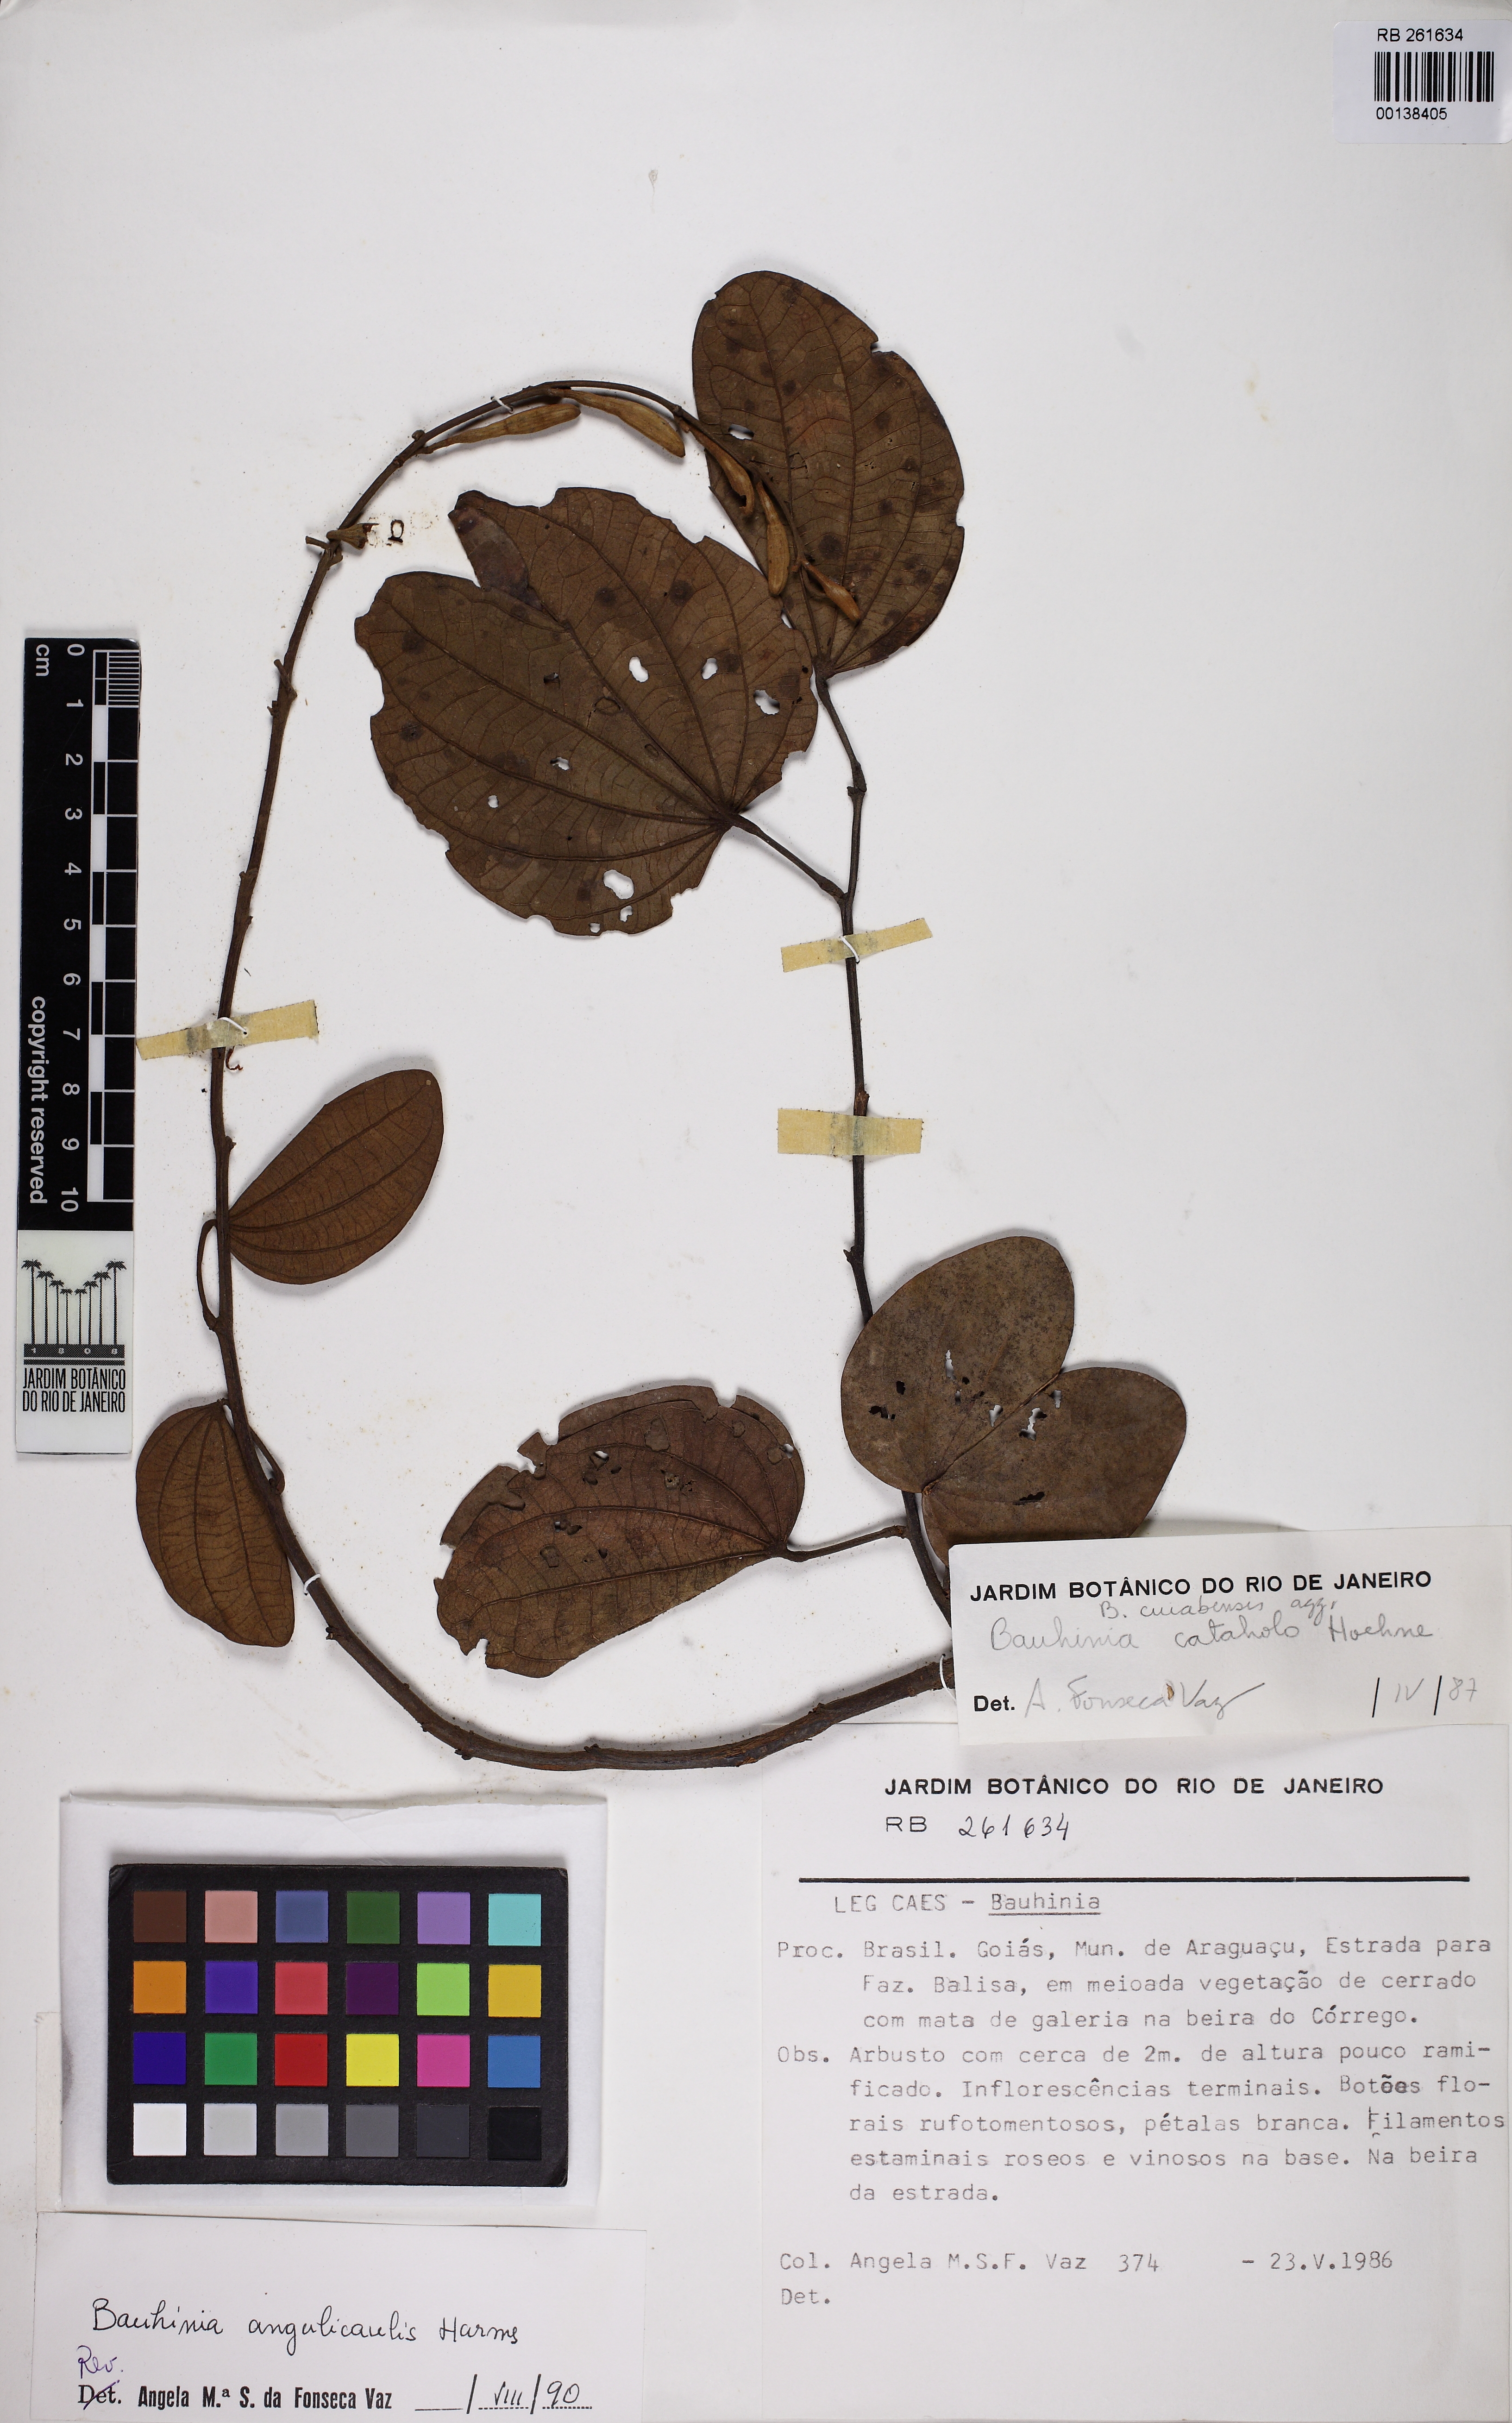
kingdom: Plantae
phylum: Tracheophyta
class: Magnoliopsida
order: Fabales
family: Fabaceae
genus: Bauhinia
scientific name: Bauhinia ungulata
